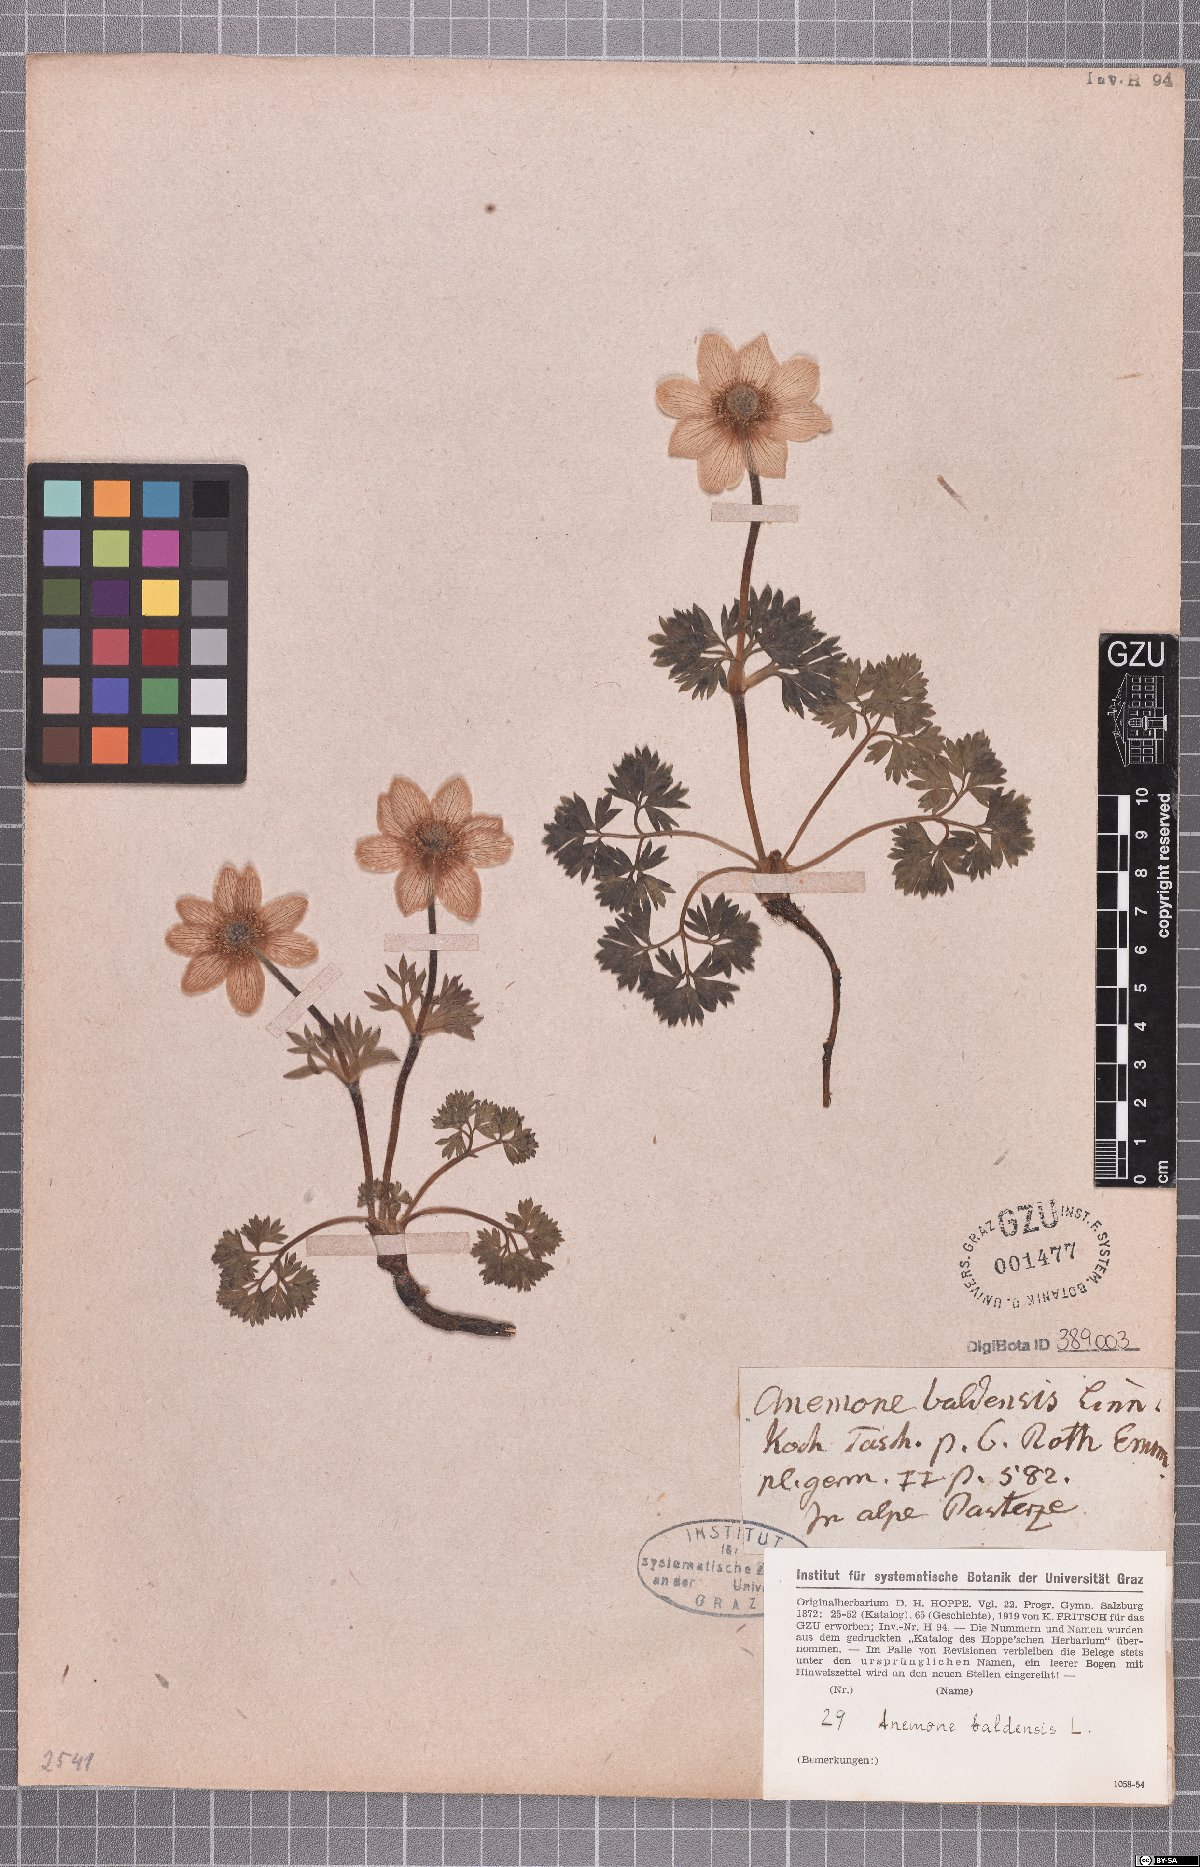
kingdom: Plantae
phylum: Tracheophyta
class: Magnoliopsida
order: Ranunculales
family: Ranunculaceae
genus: Anemone
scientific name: Anemone baldensis
